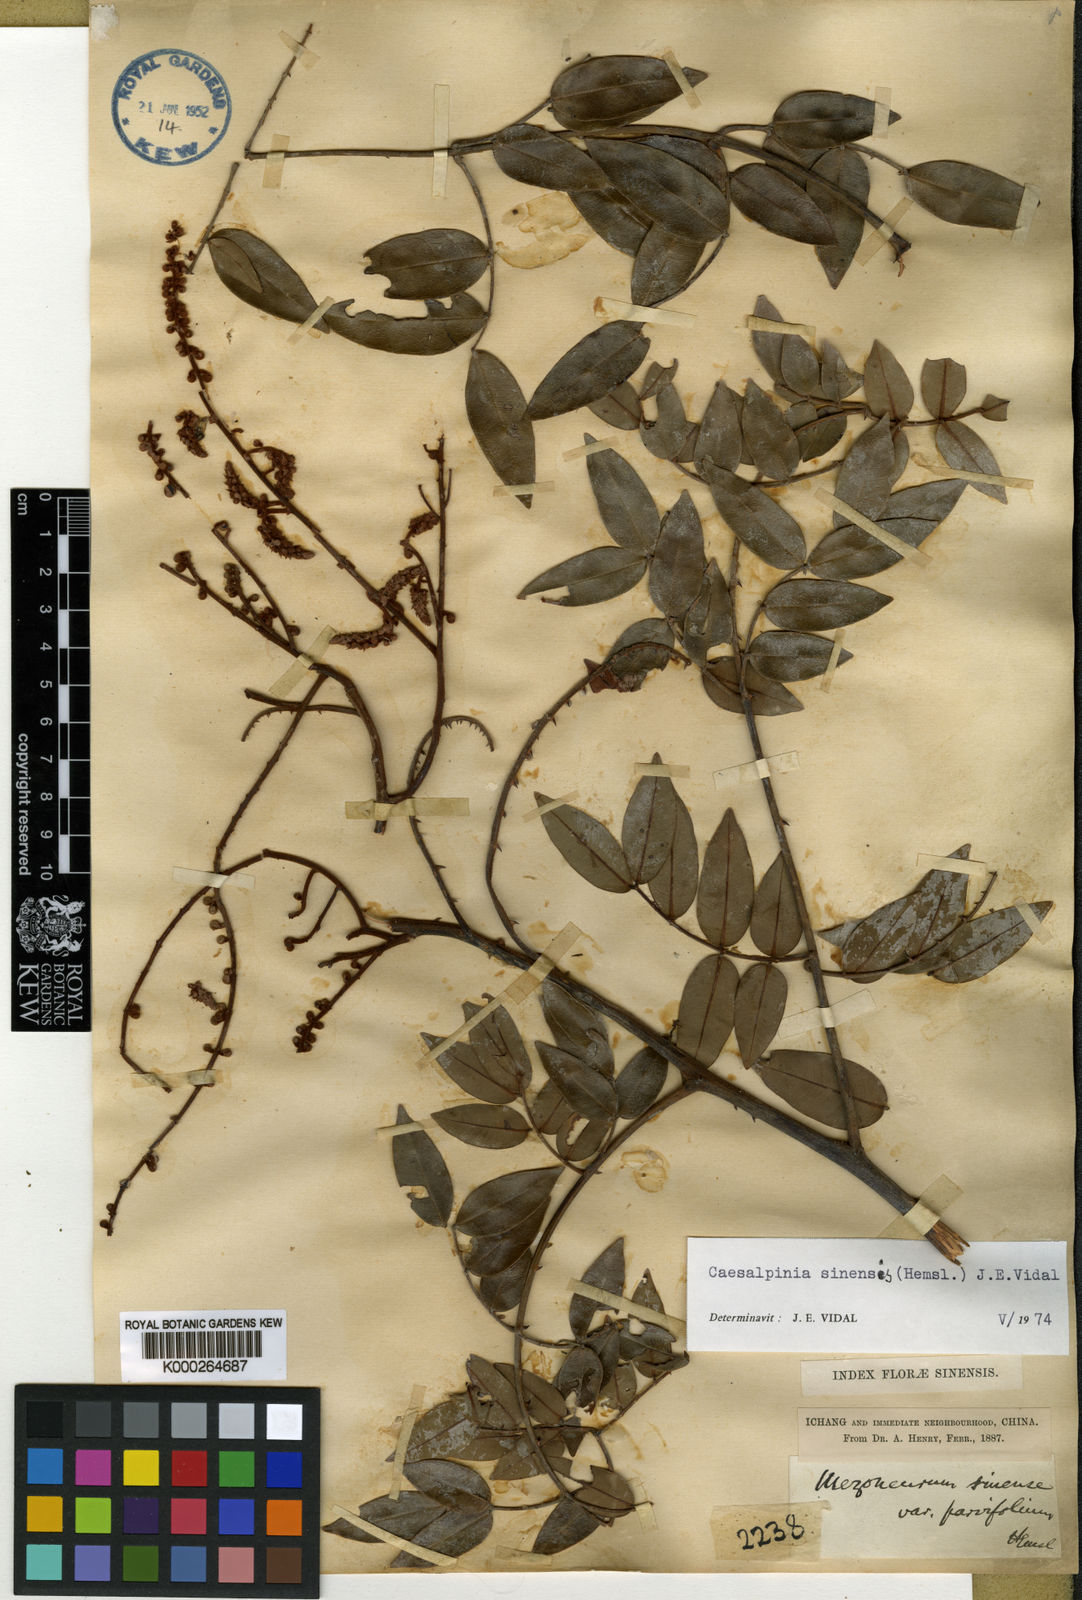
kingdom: Plantae
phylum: Tracheophyta
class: Magnoliopsida
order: Fabales
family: Fabaceae
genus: Mezoneuron
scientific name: Mezoneuron sinense
